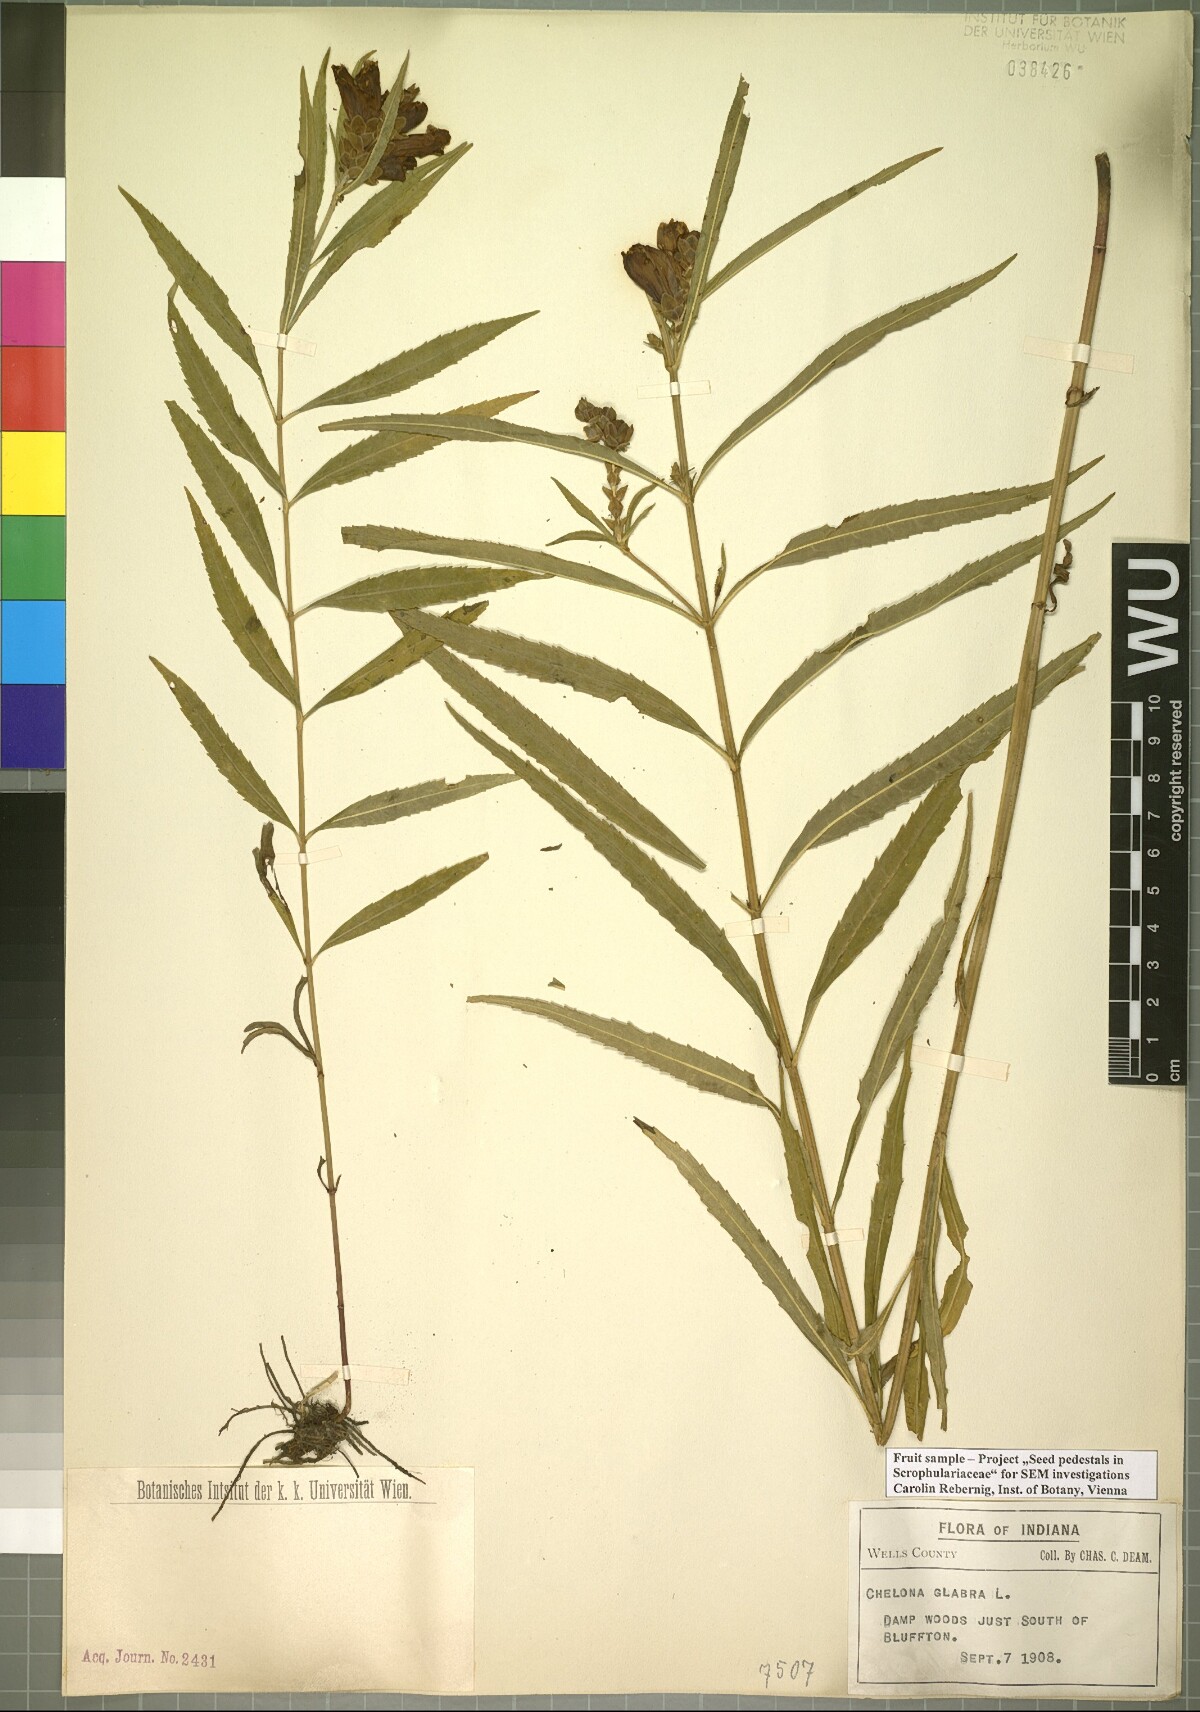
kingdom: Plantae
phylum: Tracheophyta
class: Magnoliopsida
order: Lamiales
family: Plantaginaceae
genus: Chelone
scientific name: Chelone glabra
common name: Snakehead
